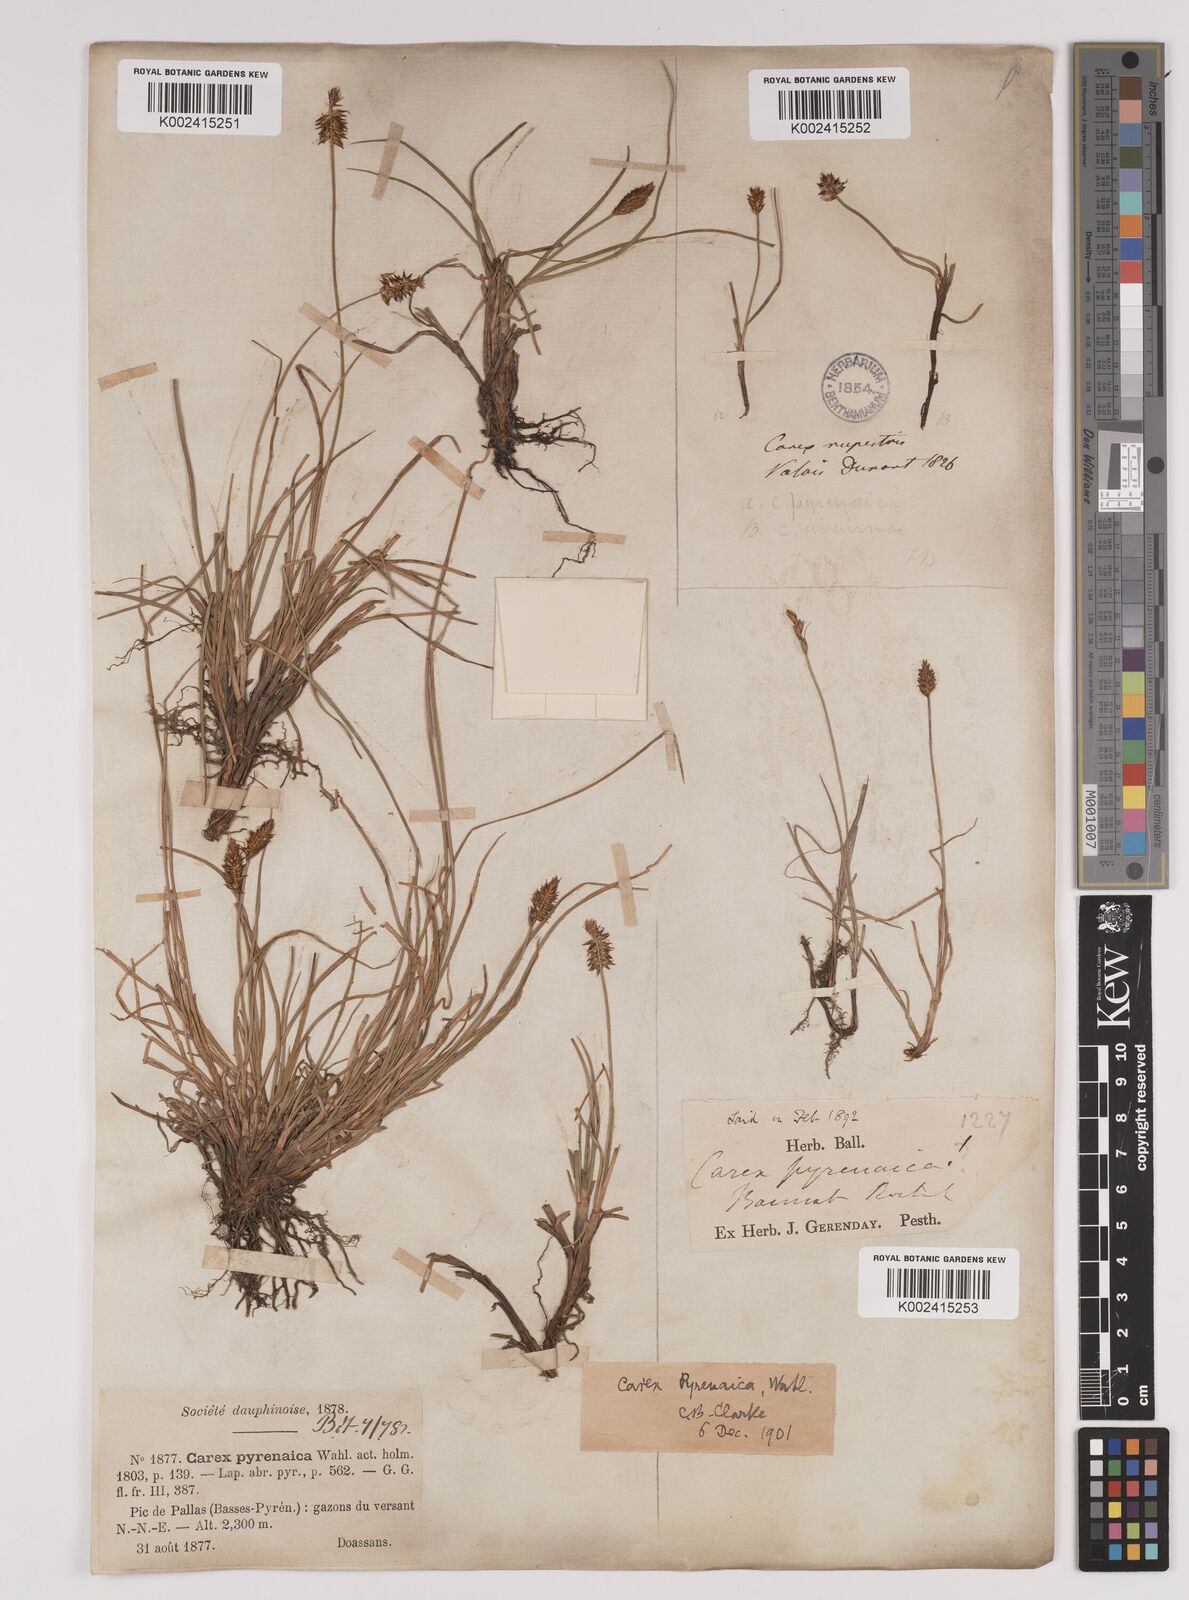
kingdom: Plantae
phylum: Tracheophyta
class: Liliopsida
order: Poales
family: Cyperaceae
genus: Carex
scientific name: Carex acicularis
